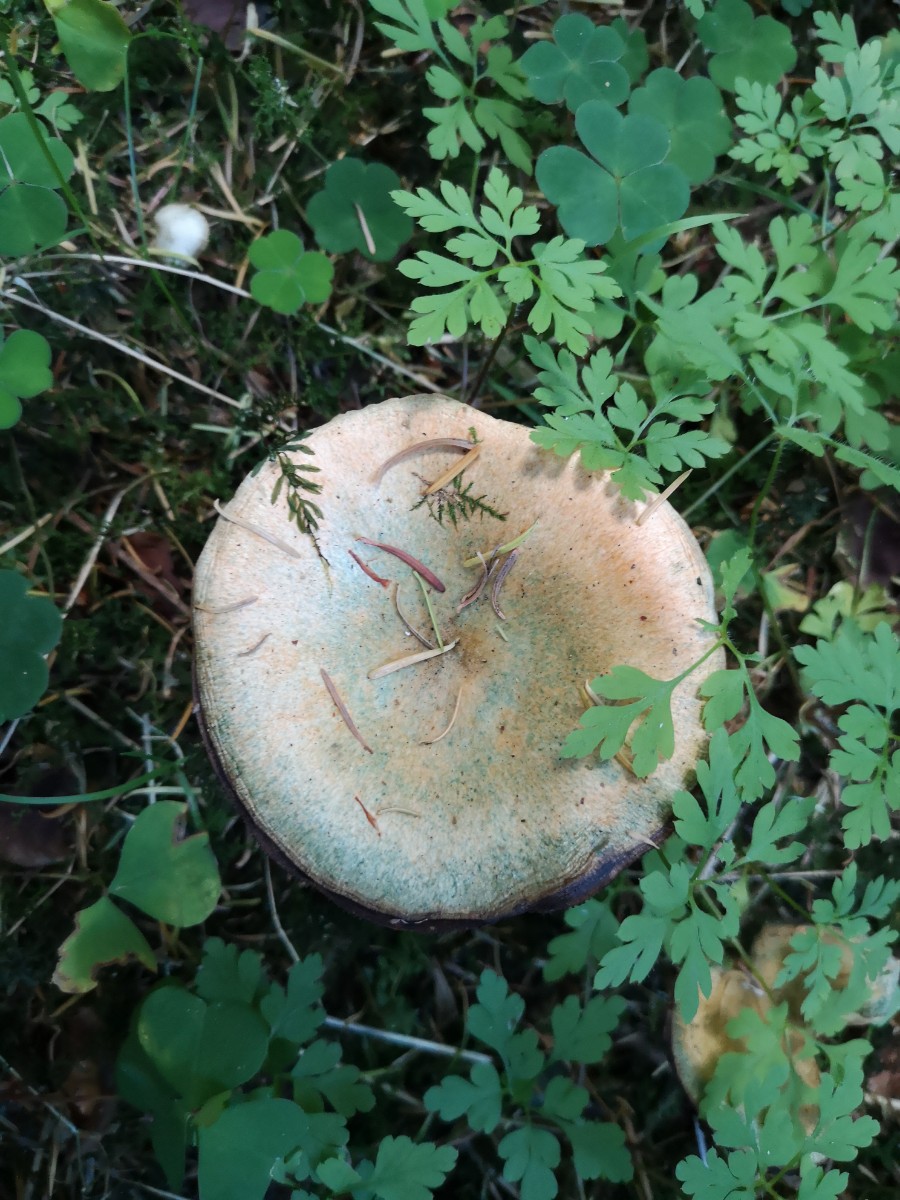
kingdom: Fungi
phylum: Basidiomycota
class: Agaricomycetes
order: Russulales
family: Russulaceae
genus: Lactarius
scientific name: Lactarius deterrimus
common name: gran-mælkehat
